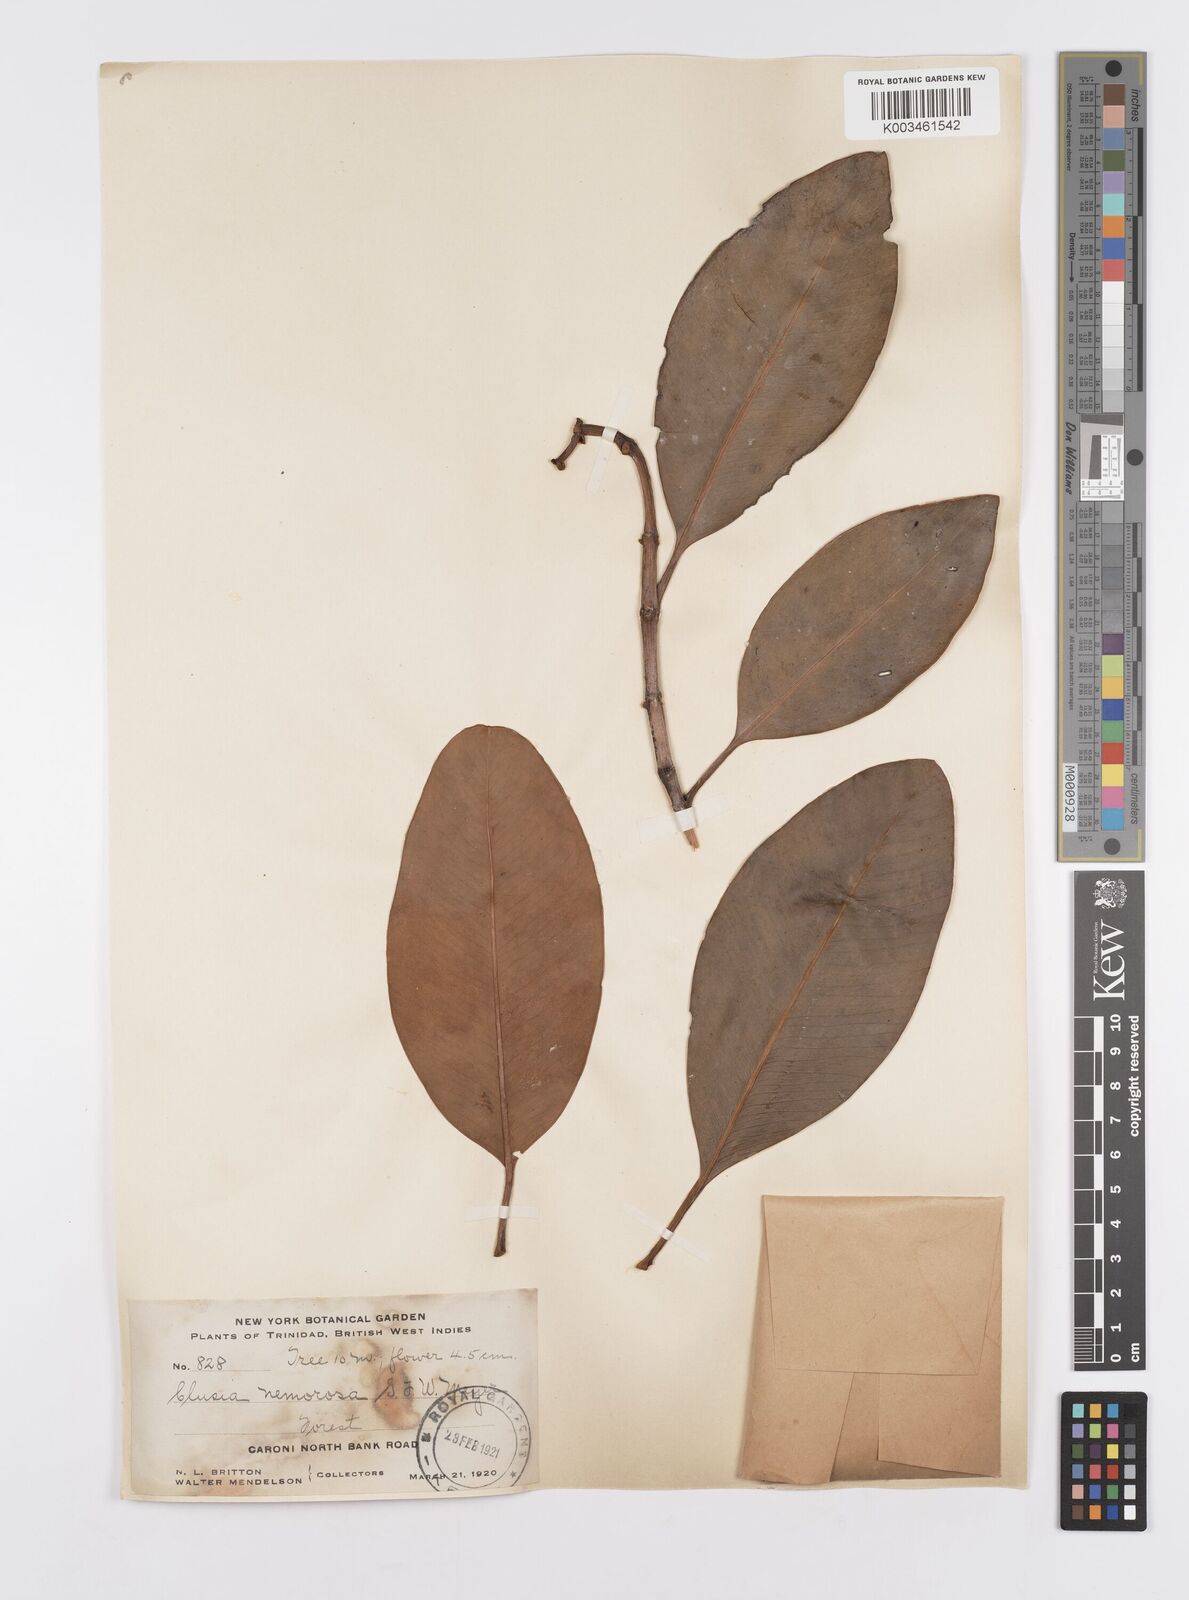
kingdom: Plantae
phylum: Tracheophyta
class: Magnoliopsida
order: Malpighiales
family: Clusiaceae
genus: Clusia
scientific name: Clusia nemorosa
